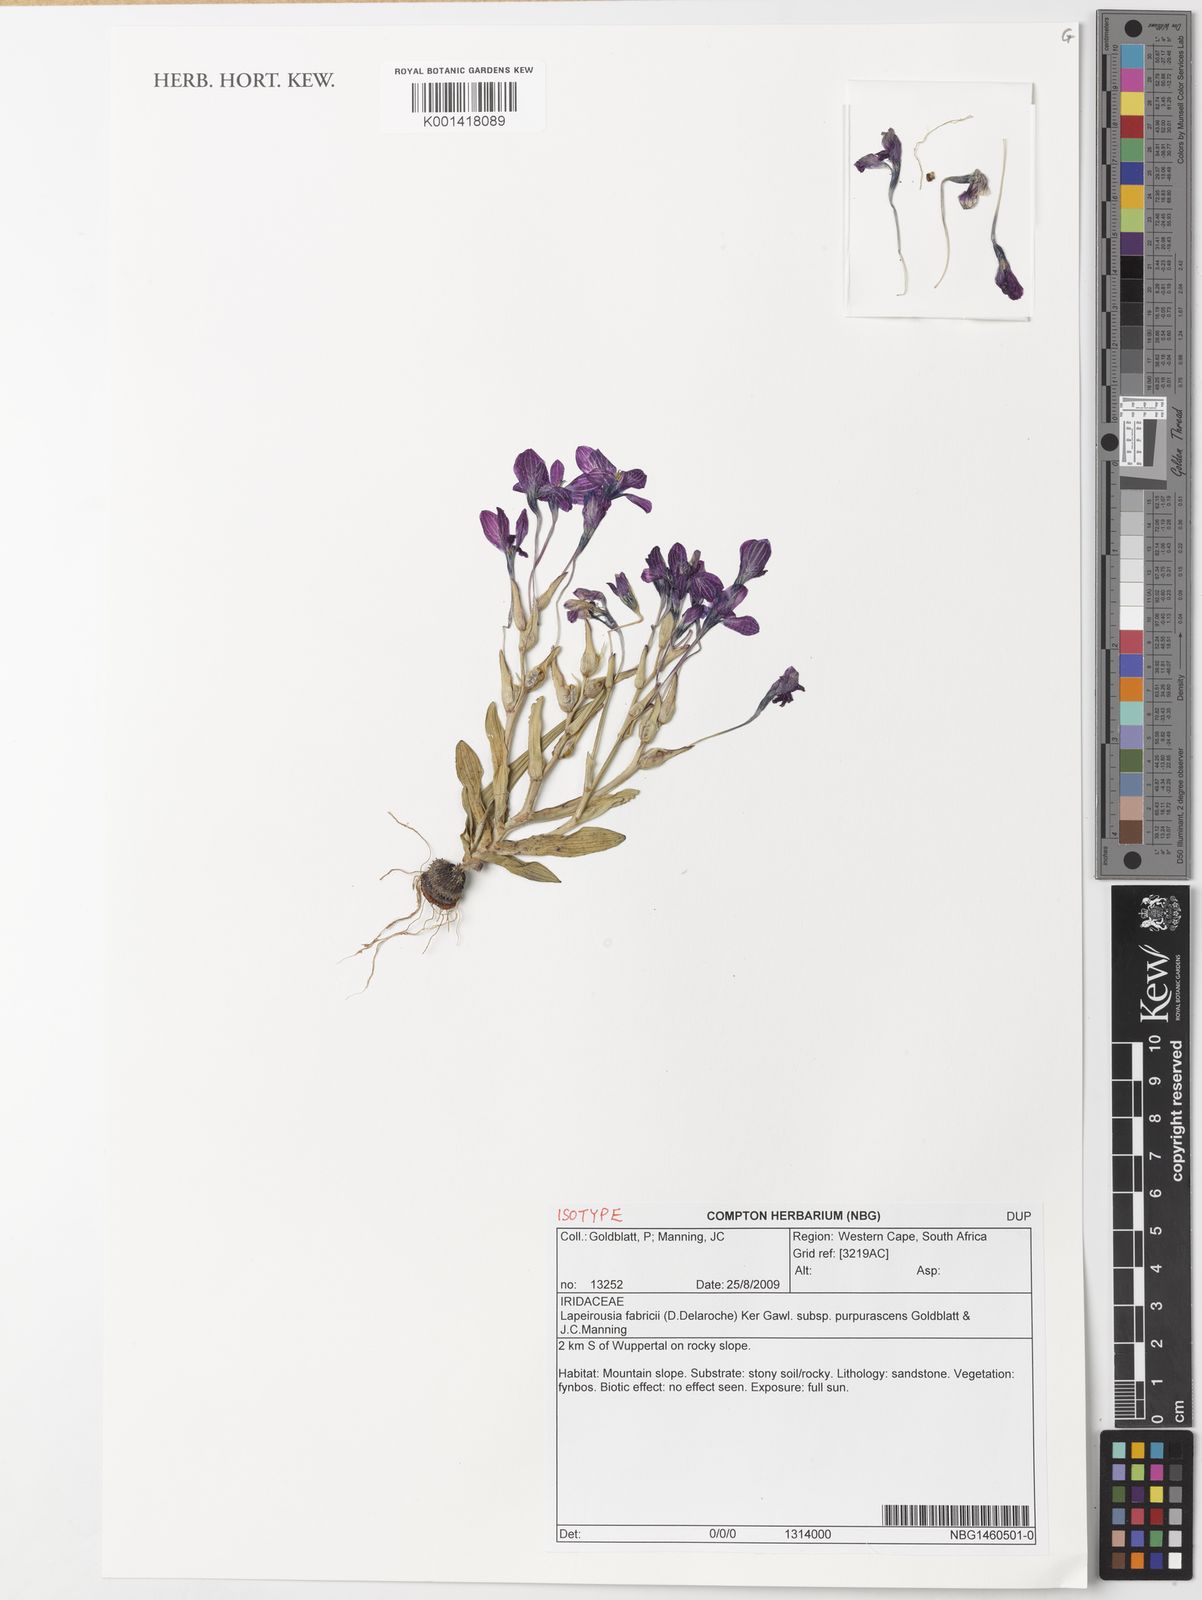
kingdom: Plantae
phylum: Tracheophyta
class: Liliopsida
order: Asparagales
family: Iridaceae
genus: Lapeirousia
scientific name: Lapeirousia
